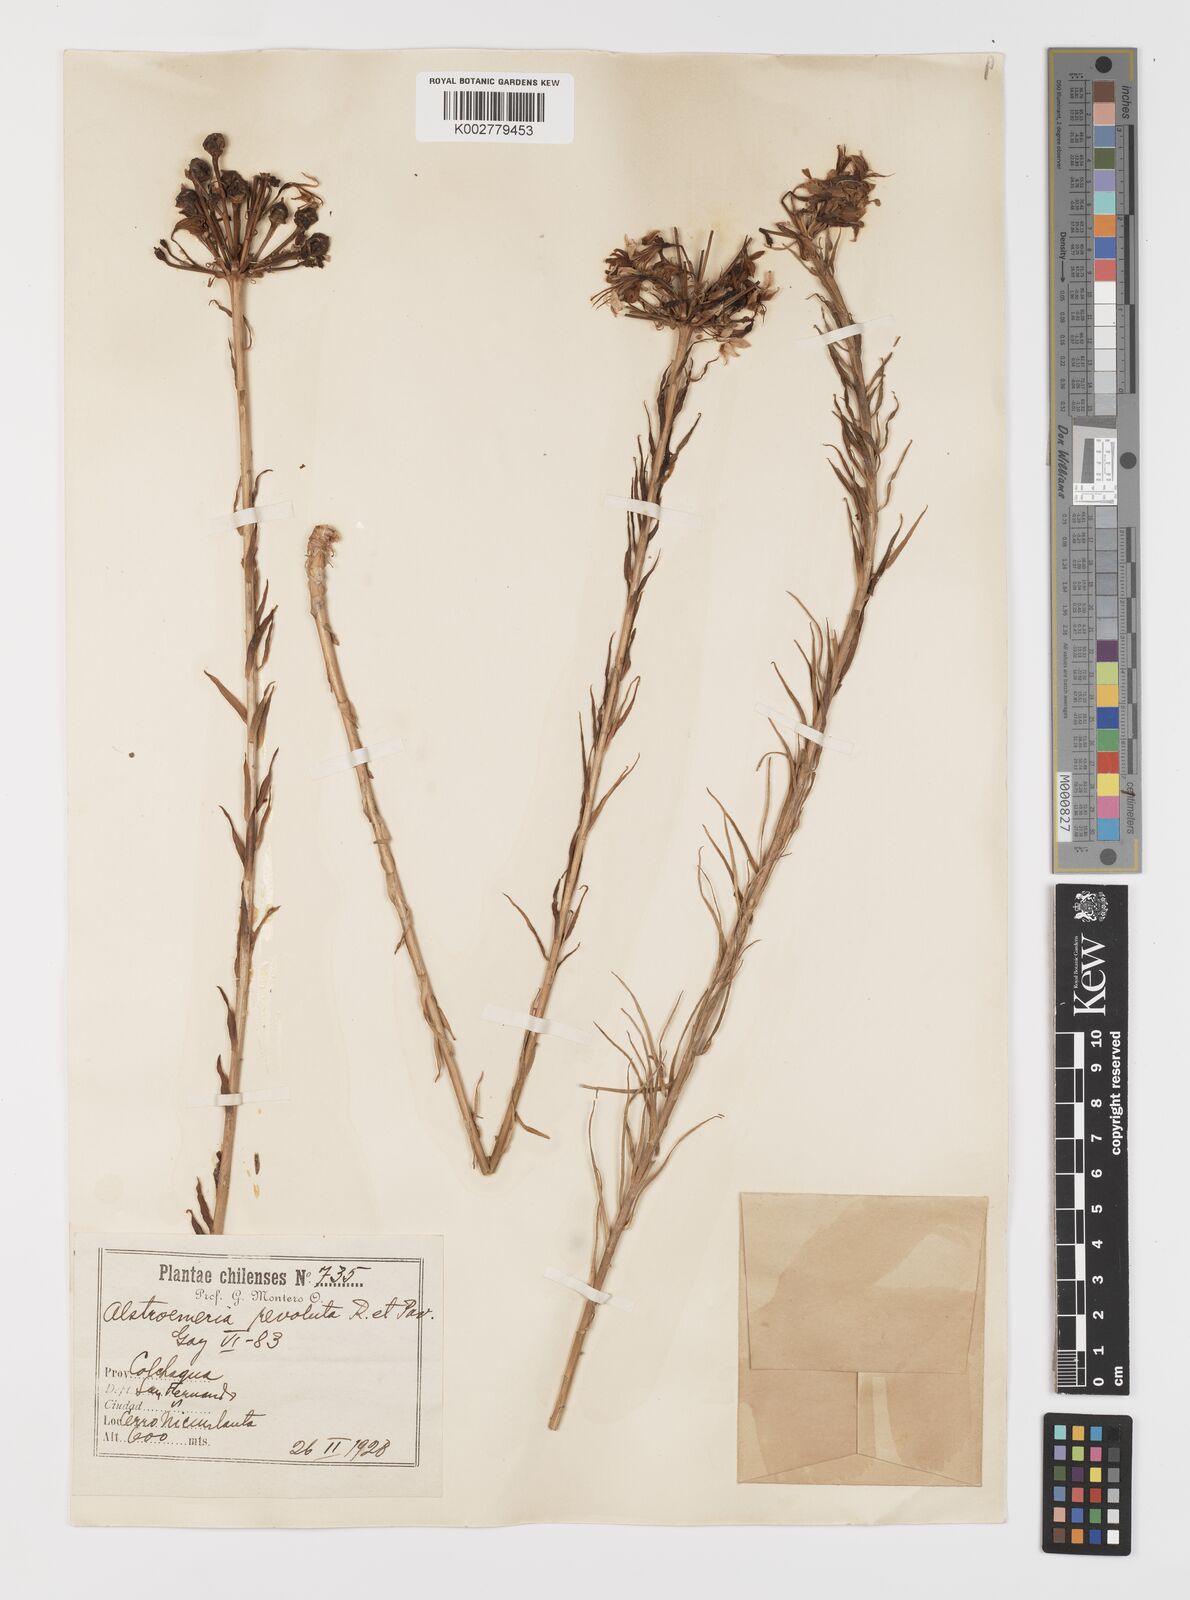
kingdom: Plantae
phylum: Tracheophyta
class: Liliopsida
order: Liliales
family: Alstroemeriaceae
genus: Alstroemeria
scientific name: Alstroemeria revoluta
